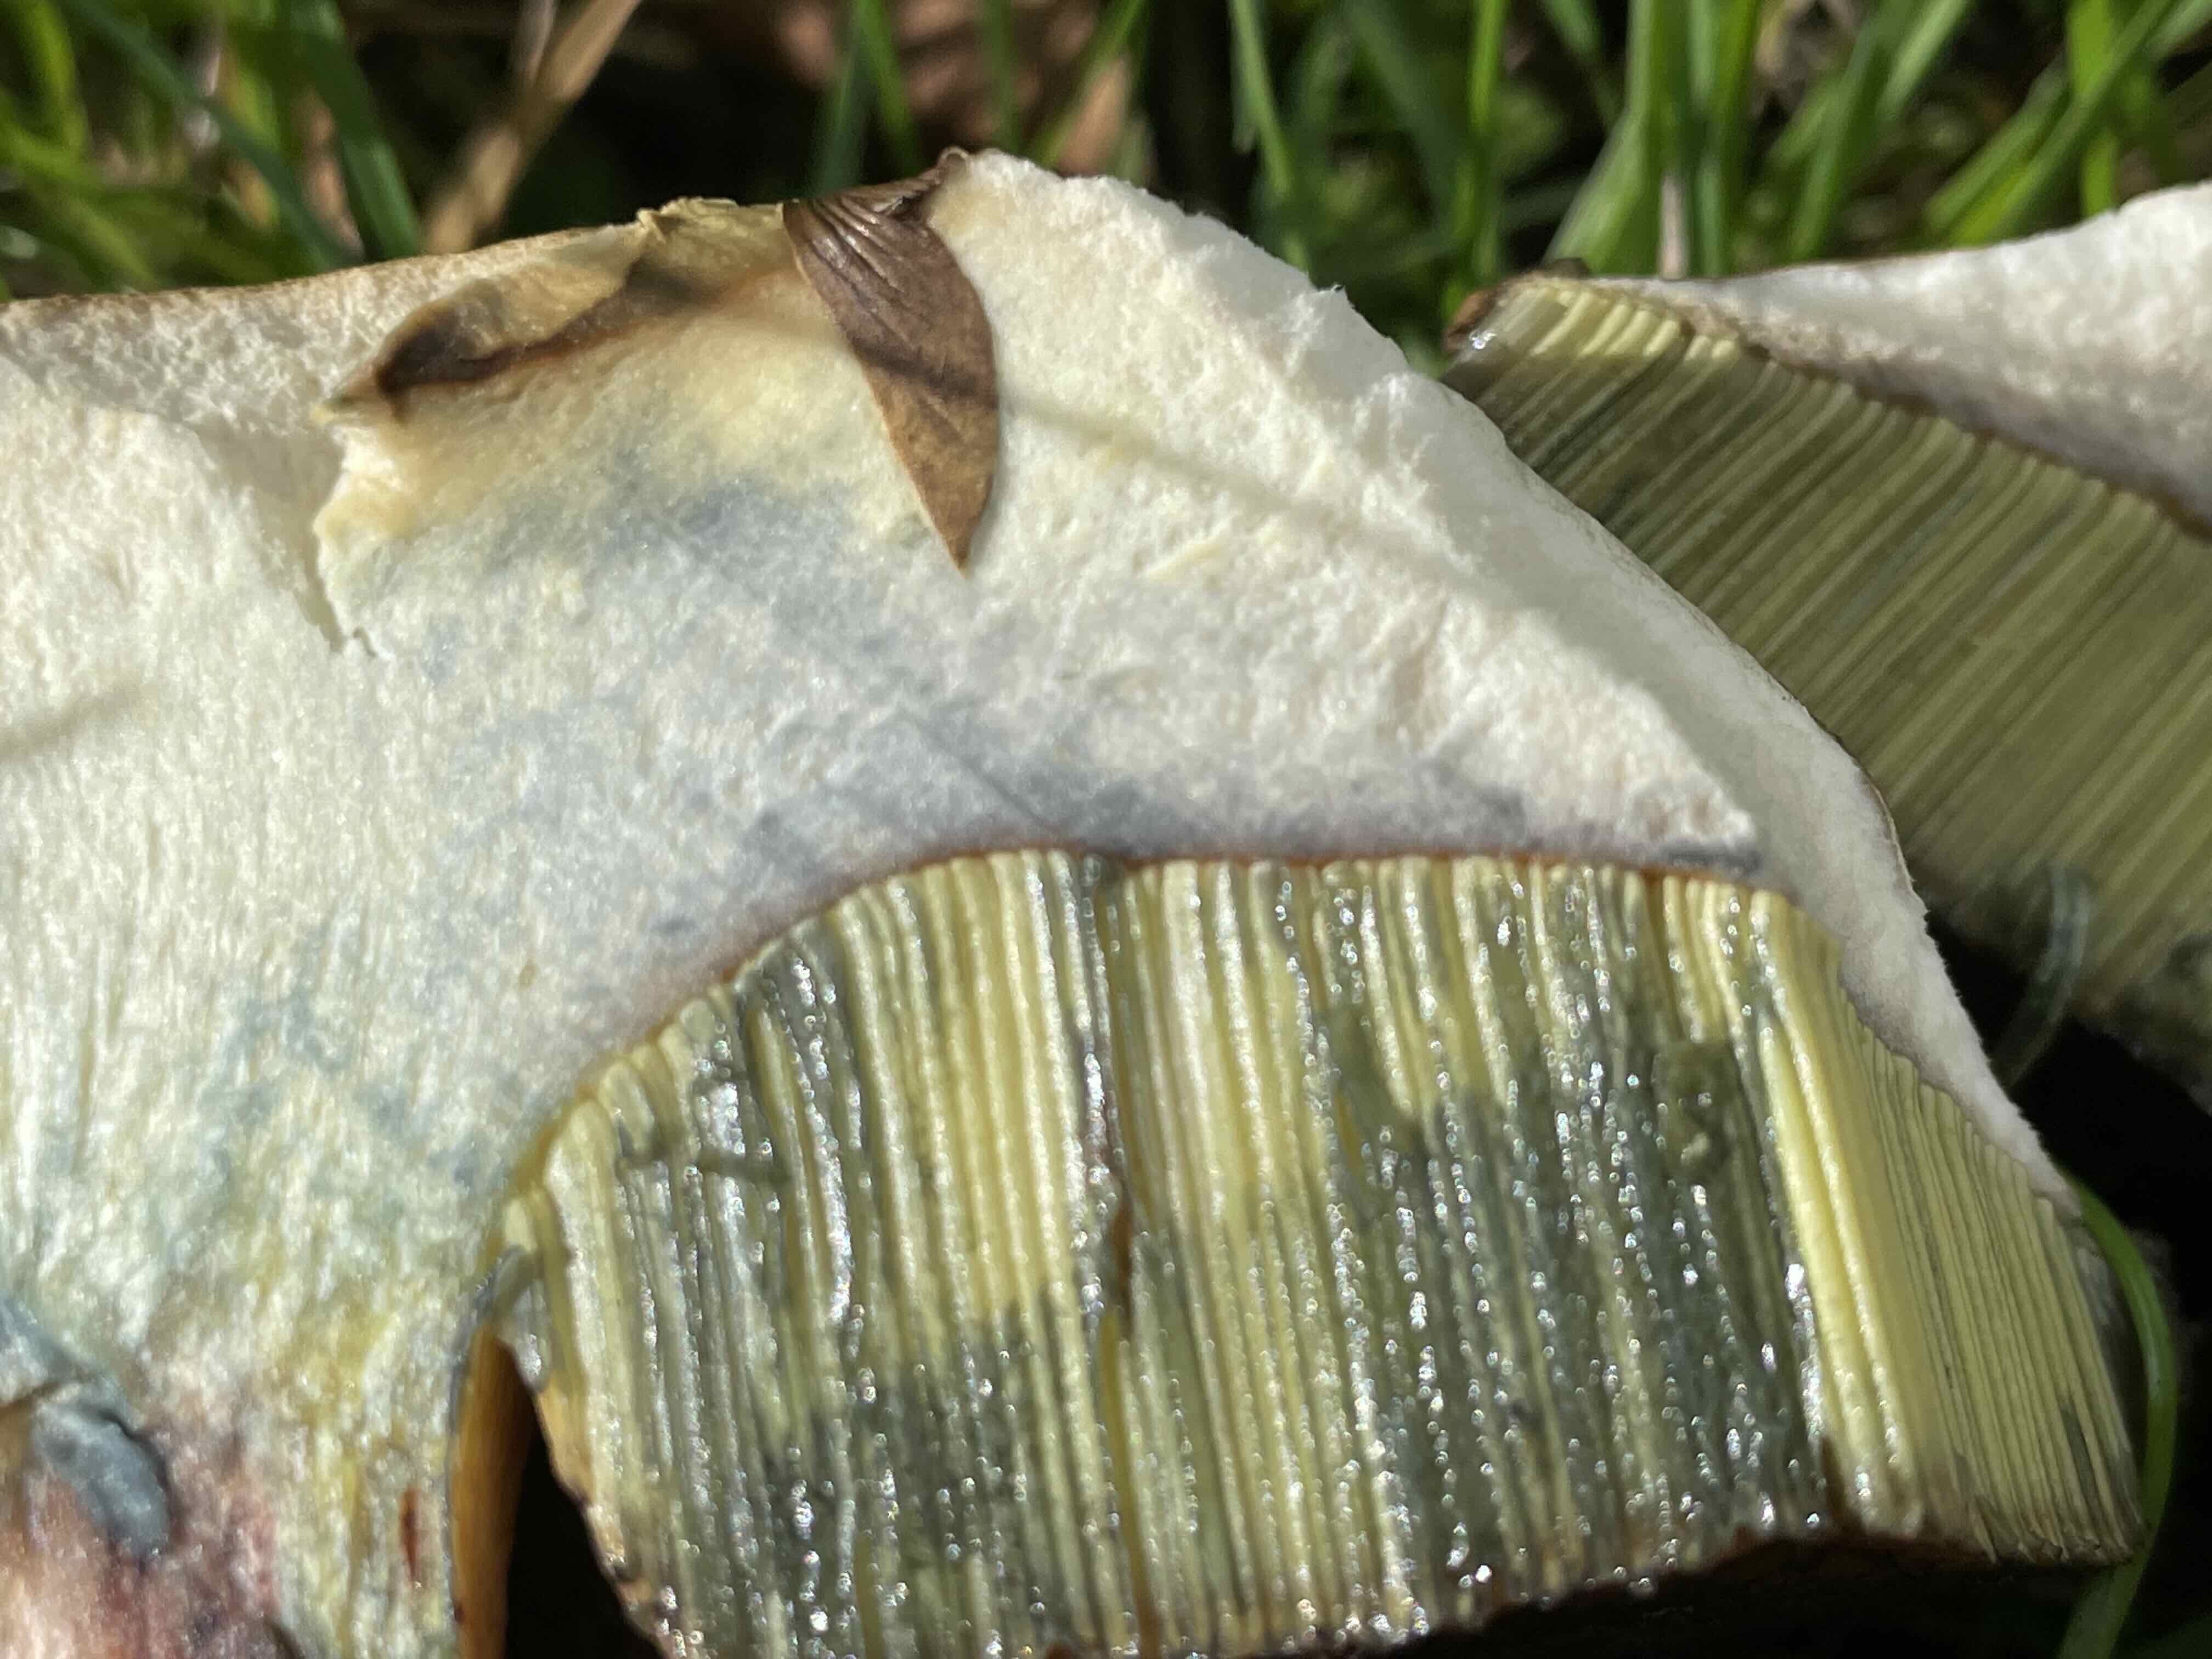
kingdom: Fungi
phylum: Basidiomycota
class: Agaricomycetes
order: Boletales
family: Boletaceae
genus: Suillellus
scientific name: Suillellus luridus
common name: netstokket indigorørhat
